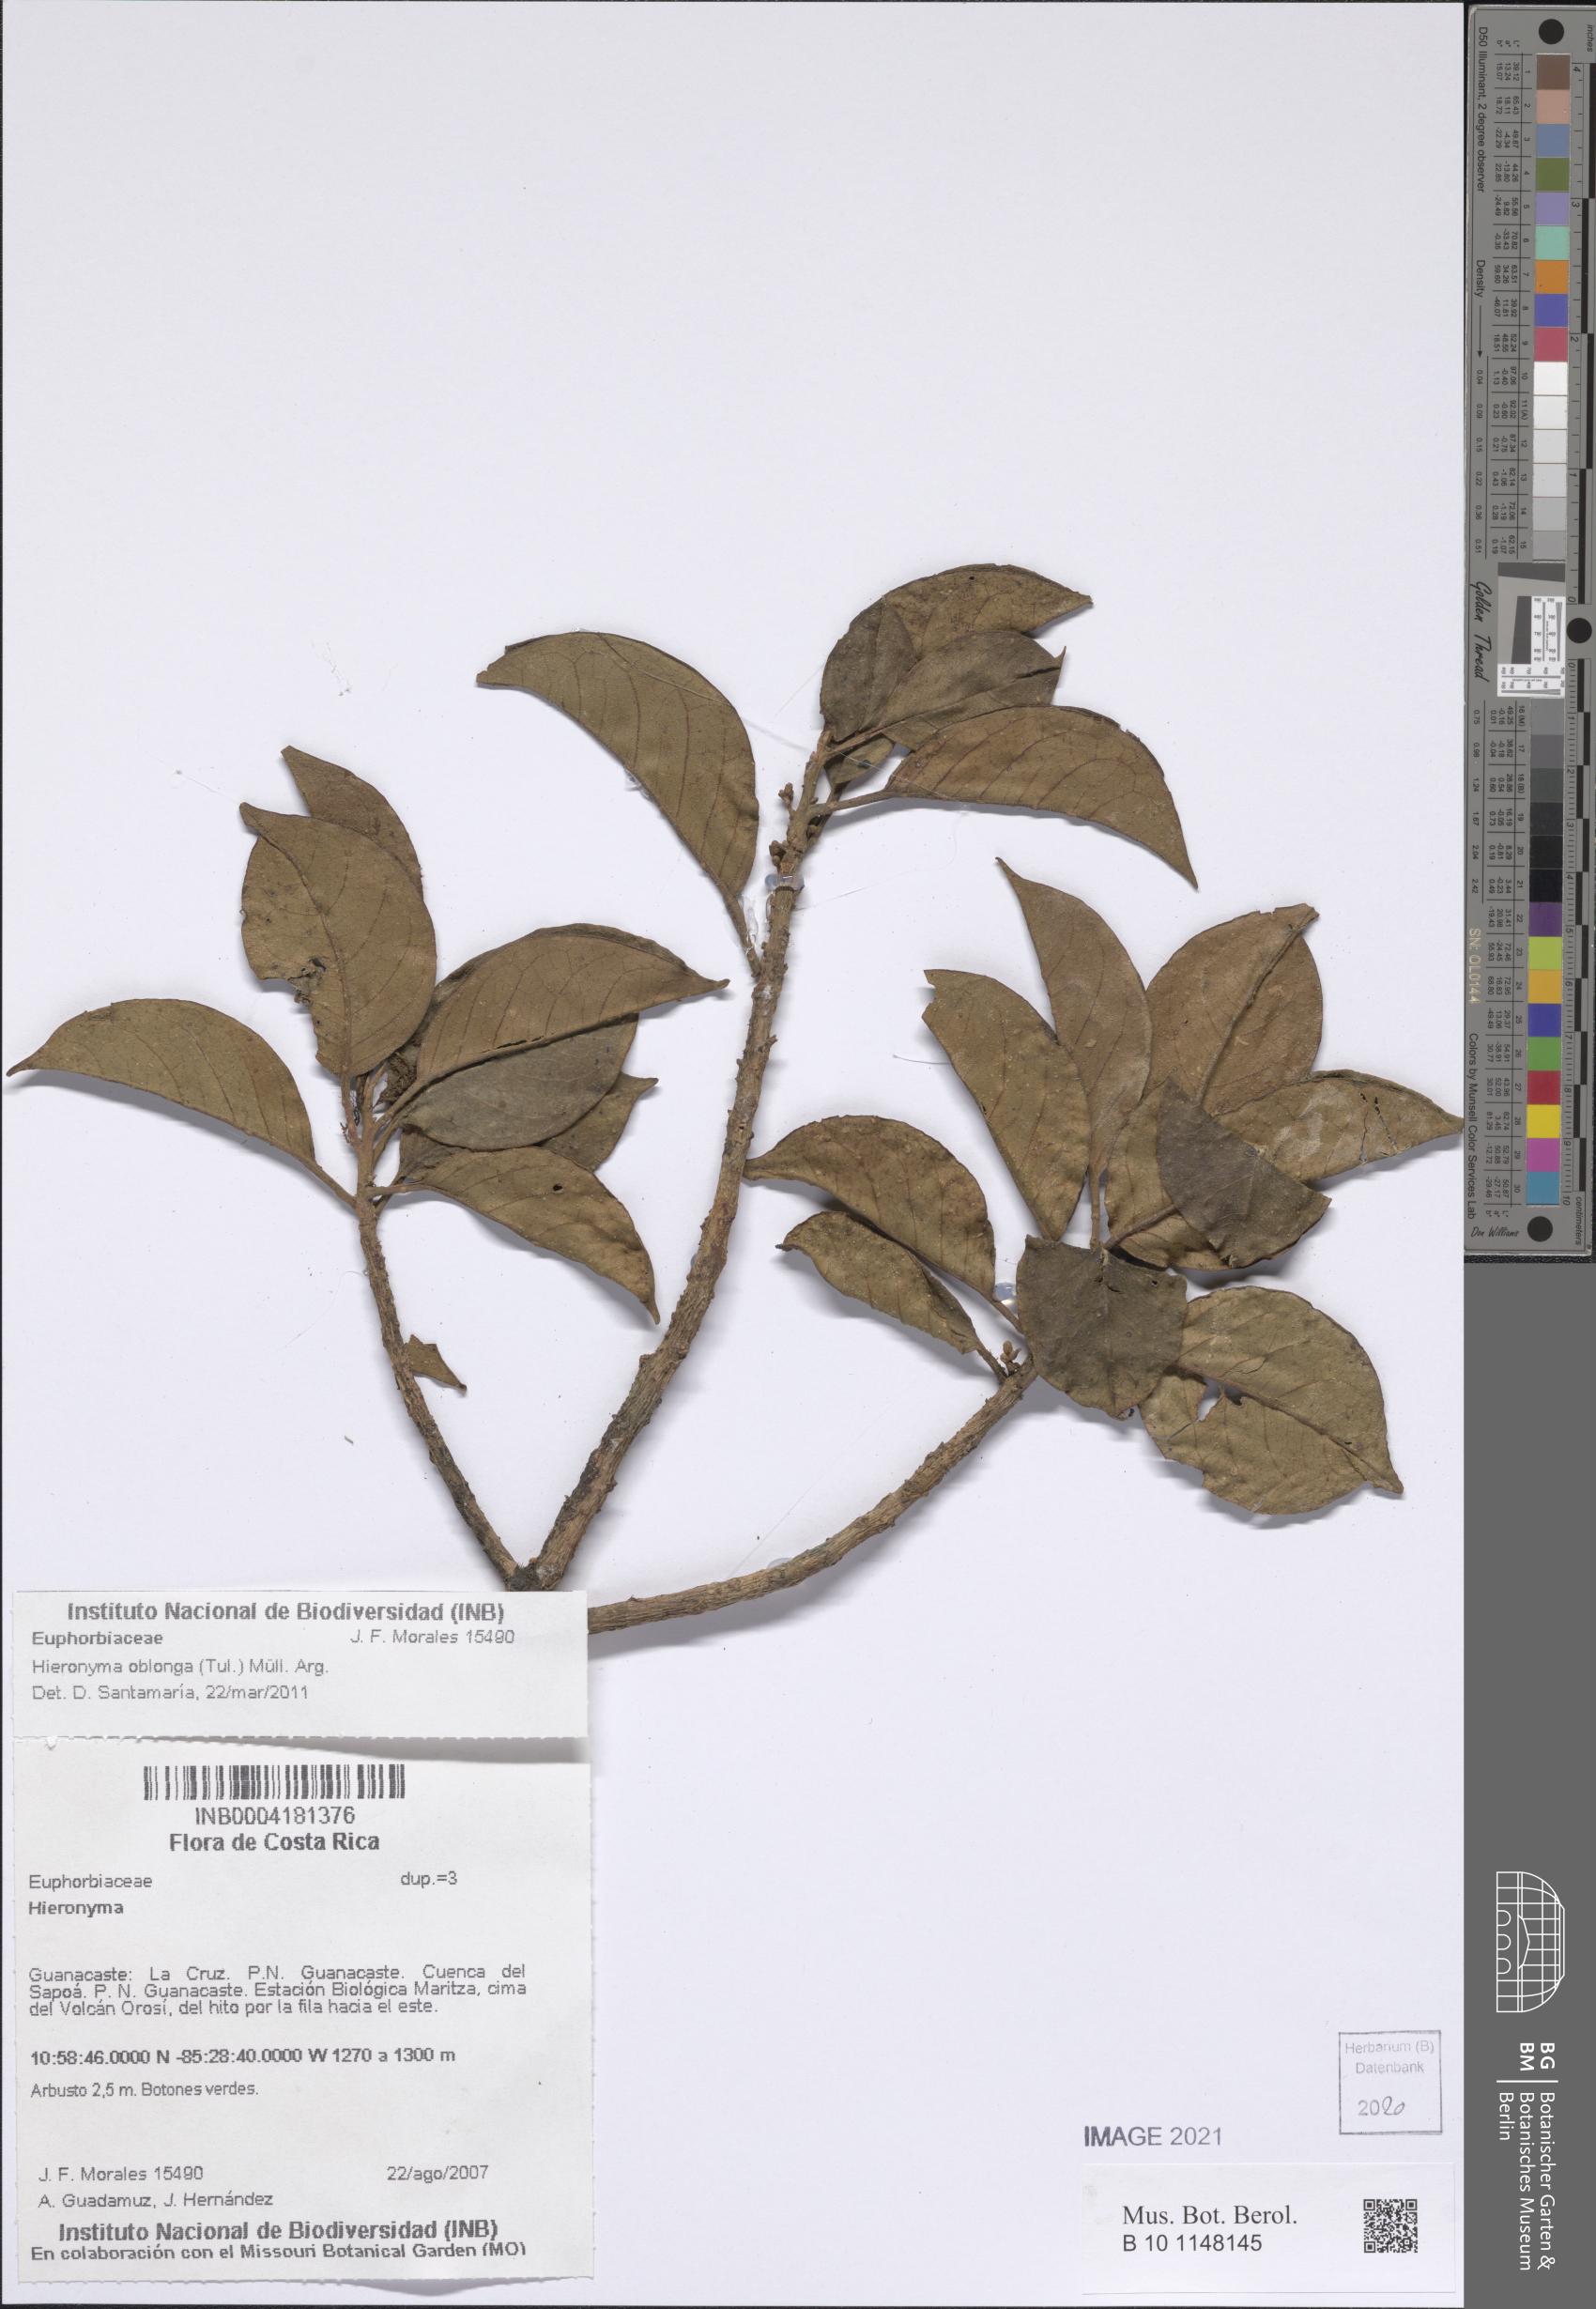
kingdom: Plantae
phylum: Tracheophyta
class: Magnoliopsida
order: Malpighiales
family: Phyllanthaceae
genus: Hieronyma
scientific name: Hieronyma
